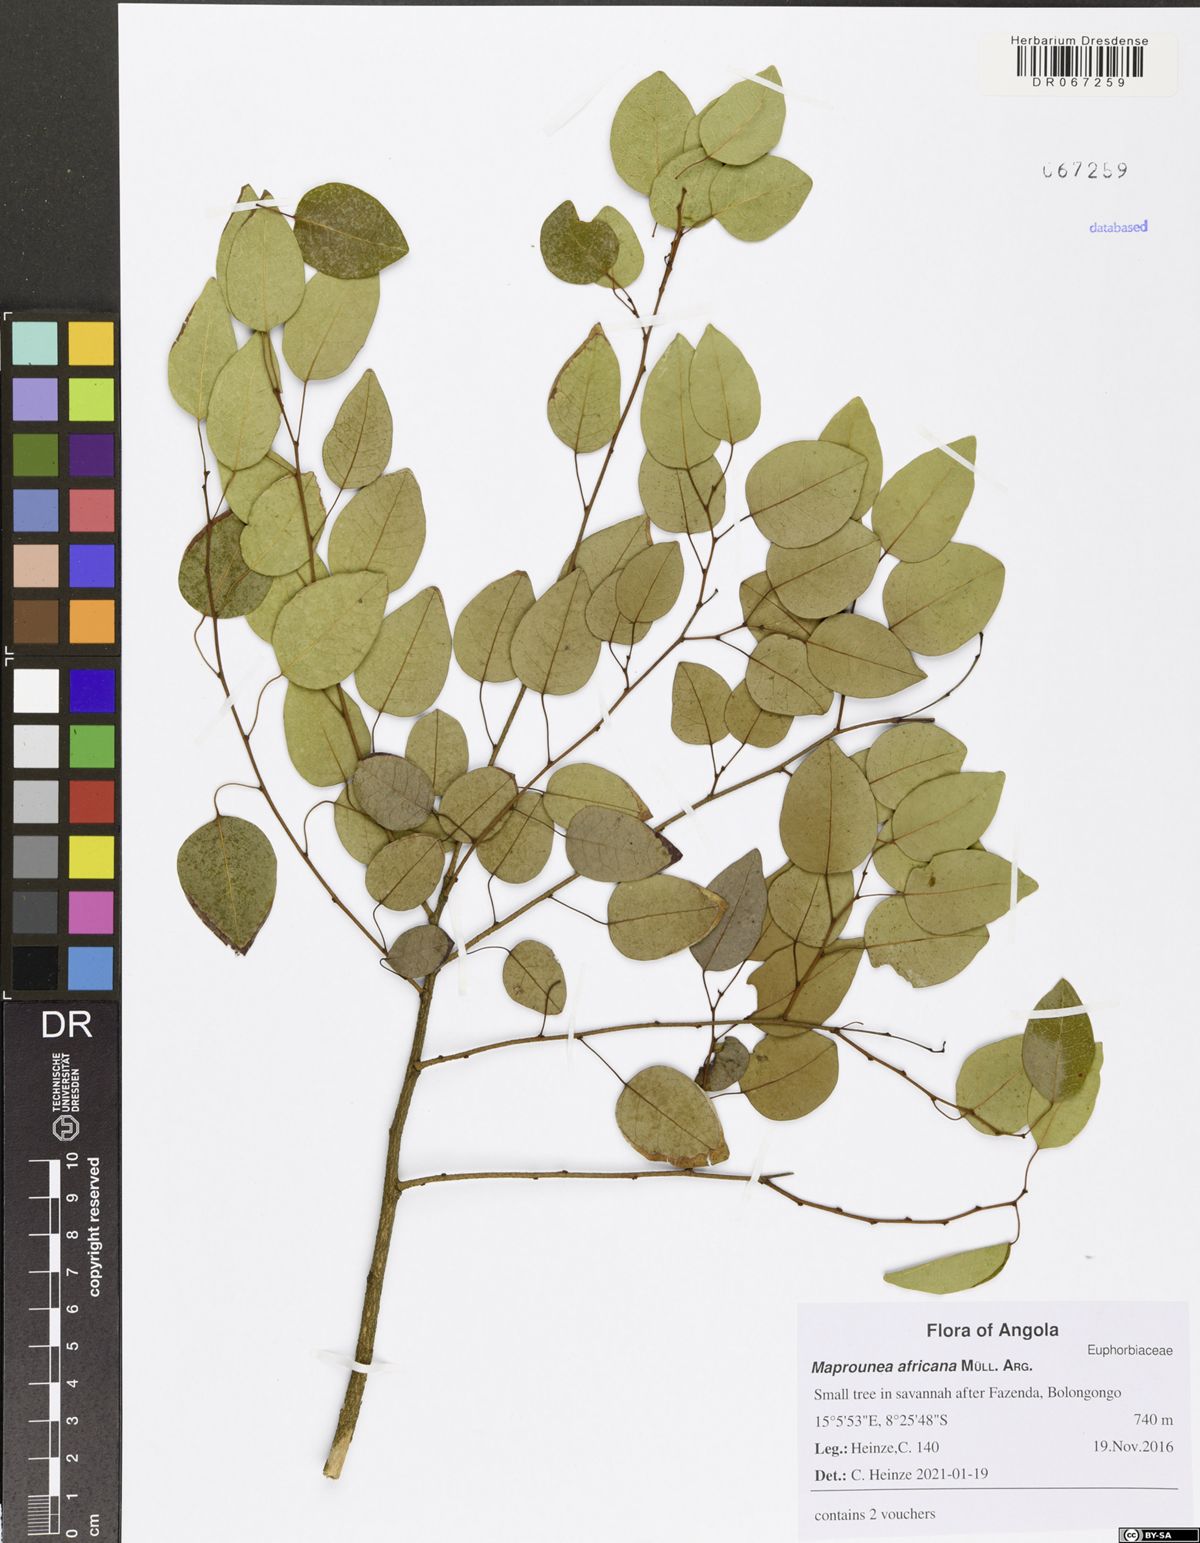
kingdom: Plantae
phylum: Tracheophyta
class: Magnoliopsida
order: Malpighiales
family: Euphorbiaceae
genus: Maprounea
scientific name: Maprounea africana
